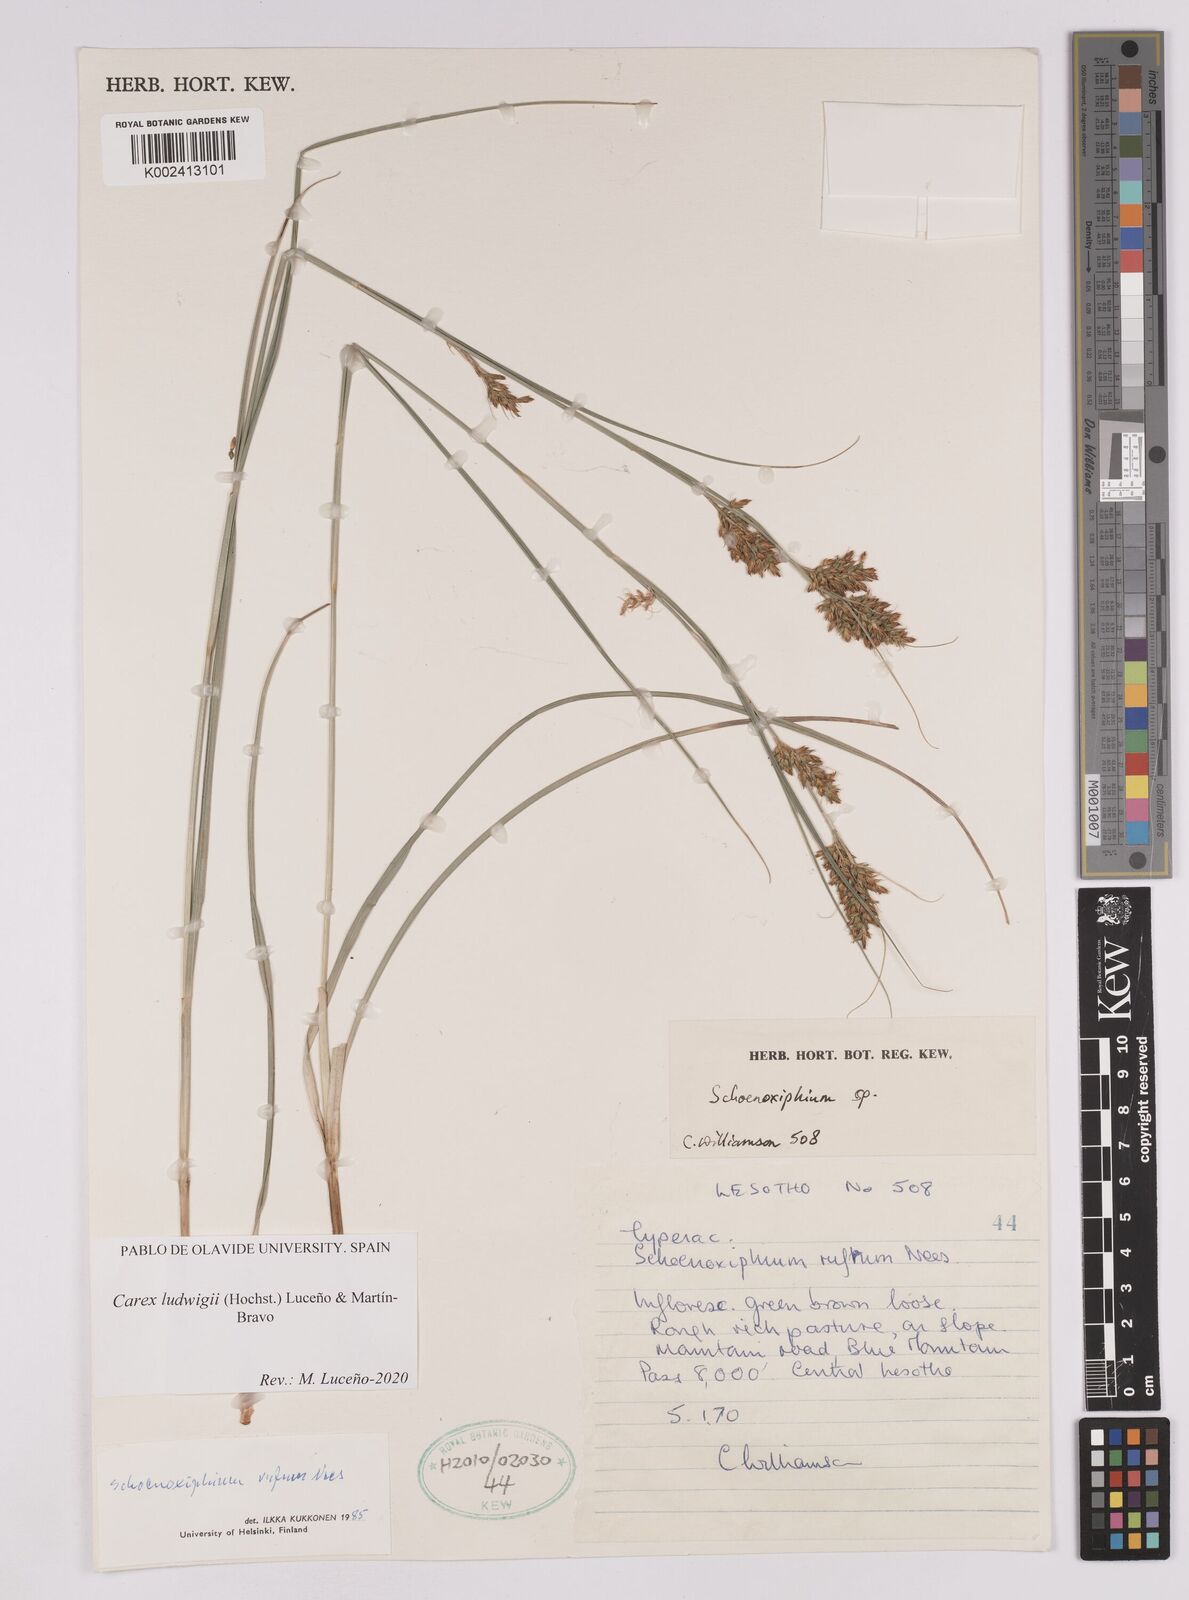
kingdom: Plantae
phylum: Tracheophyta
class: Liliopsida
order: Poales
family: Cyperaceae
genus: Carex
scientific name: Carex ludwigii
